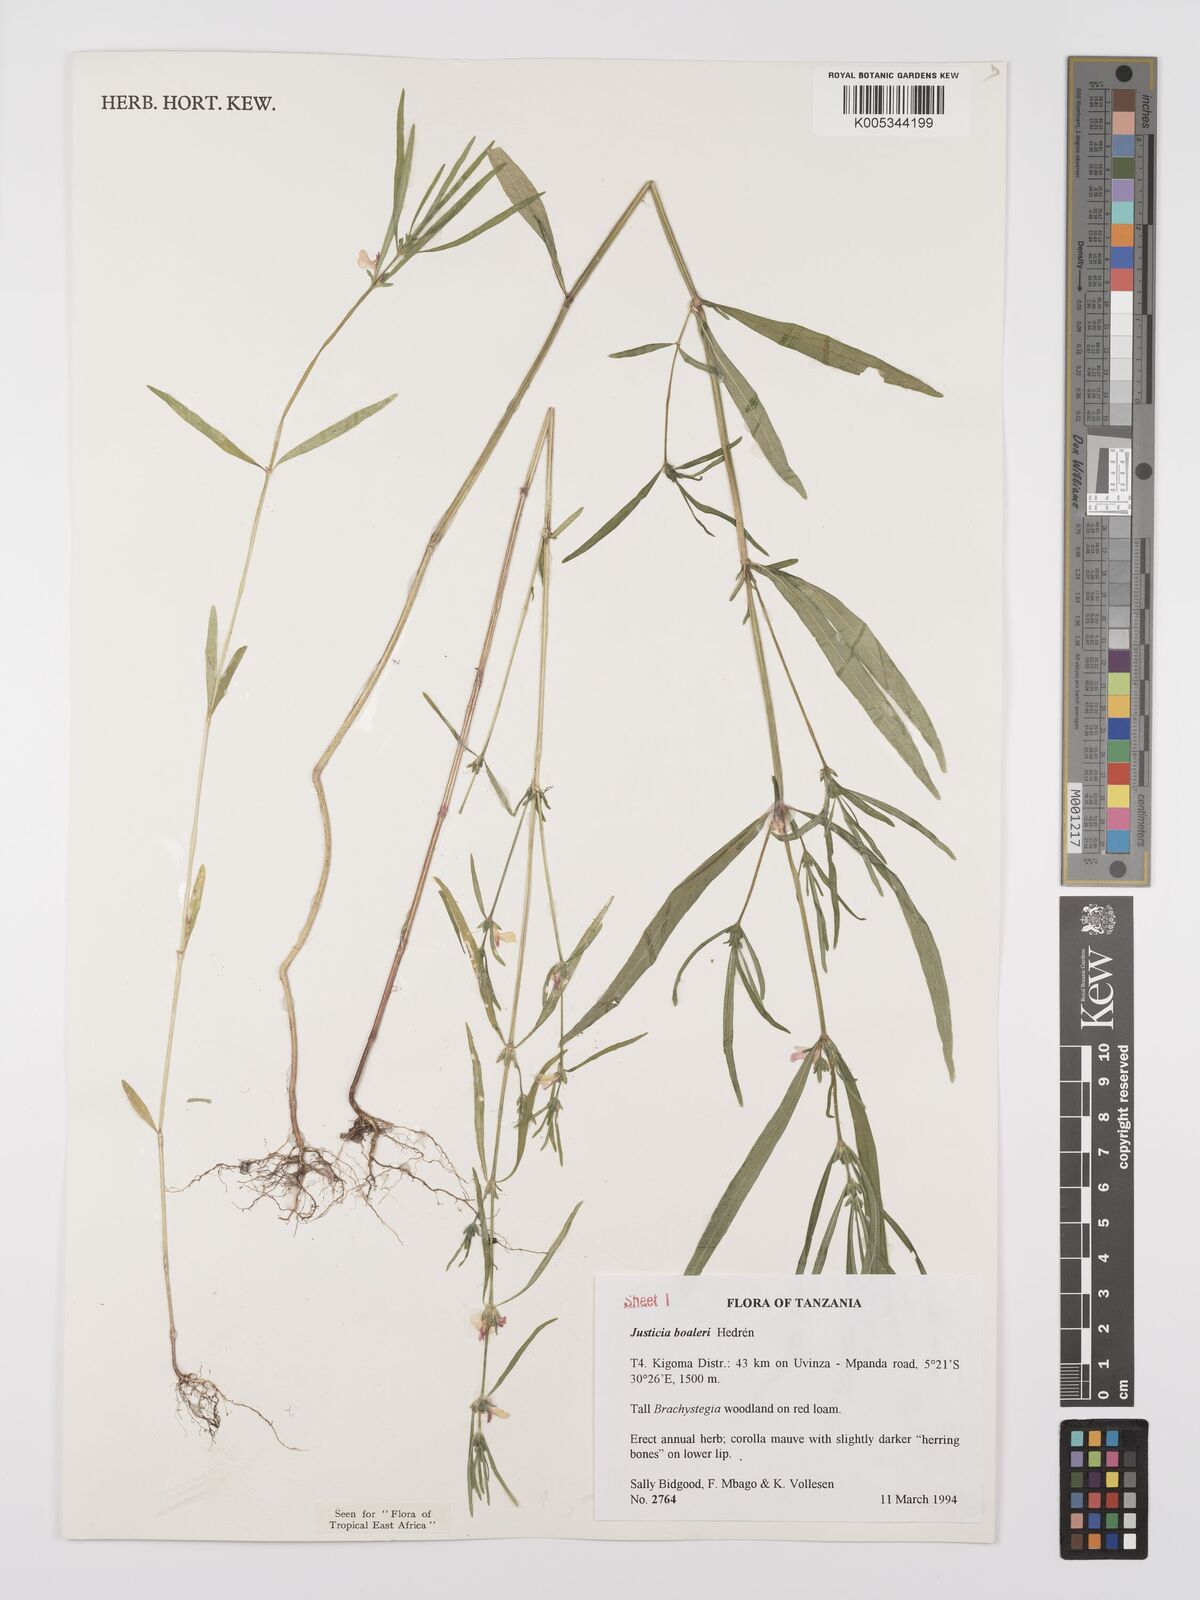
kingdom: Plantae
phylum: Tracheophyta
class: Magnoliopsida
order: Lamiales
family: Acanthaceae
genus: Justicia
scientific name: Justicia boaleri
